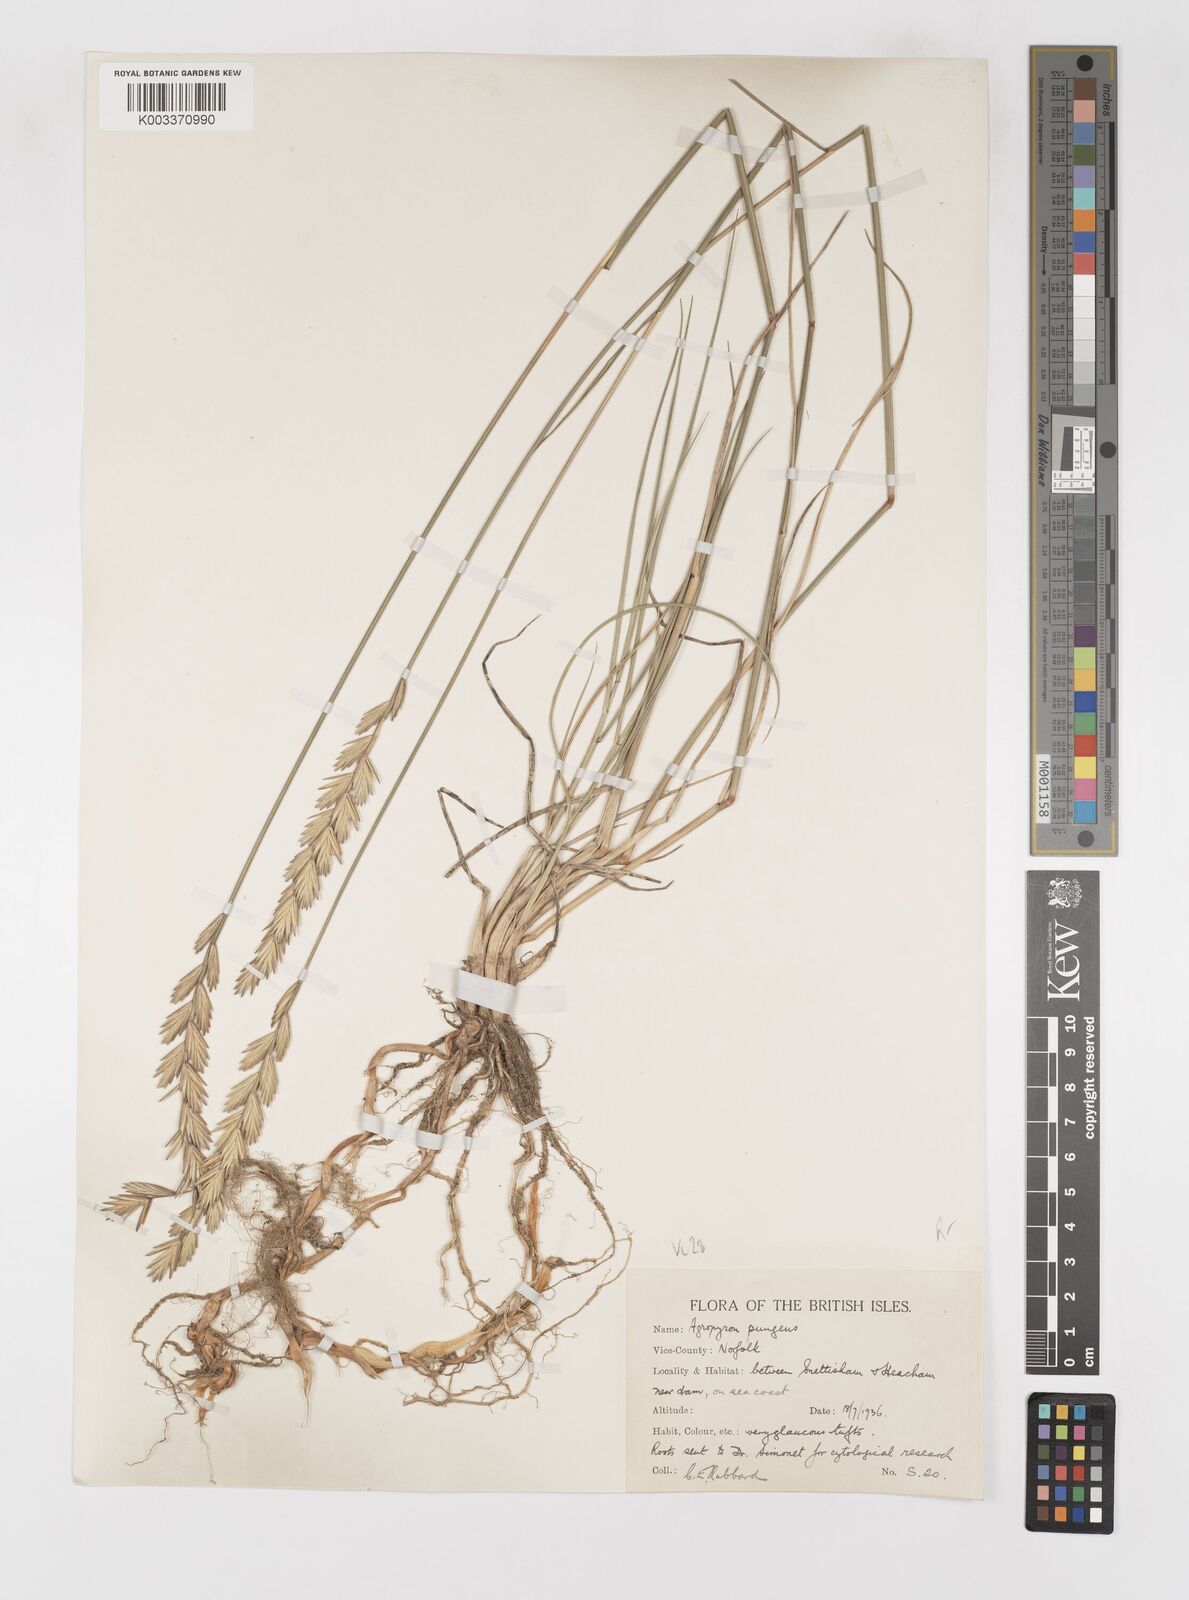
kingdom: Plantae
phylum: Tracheophyta
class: Liliopsida
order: Poales
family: Poaceae
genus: Elymus
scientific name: Elymus repens
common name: Quackgrass
